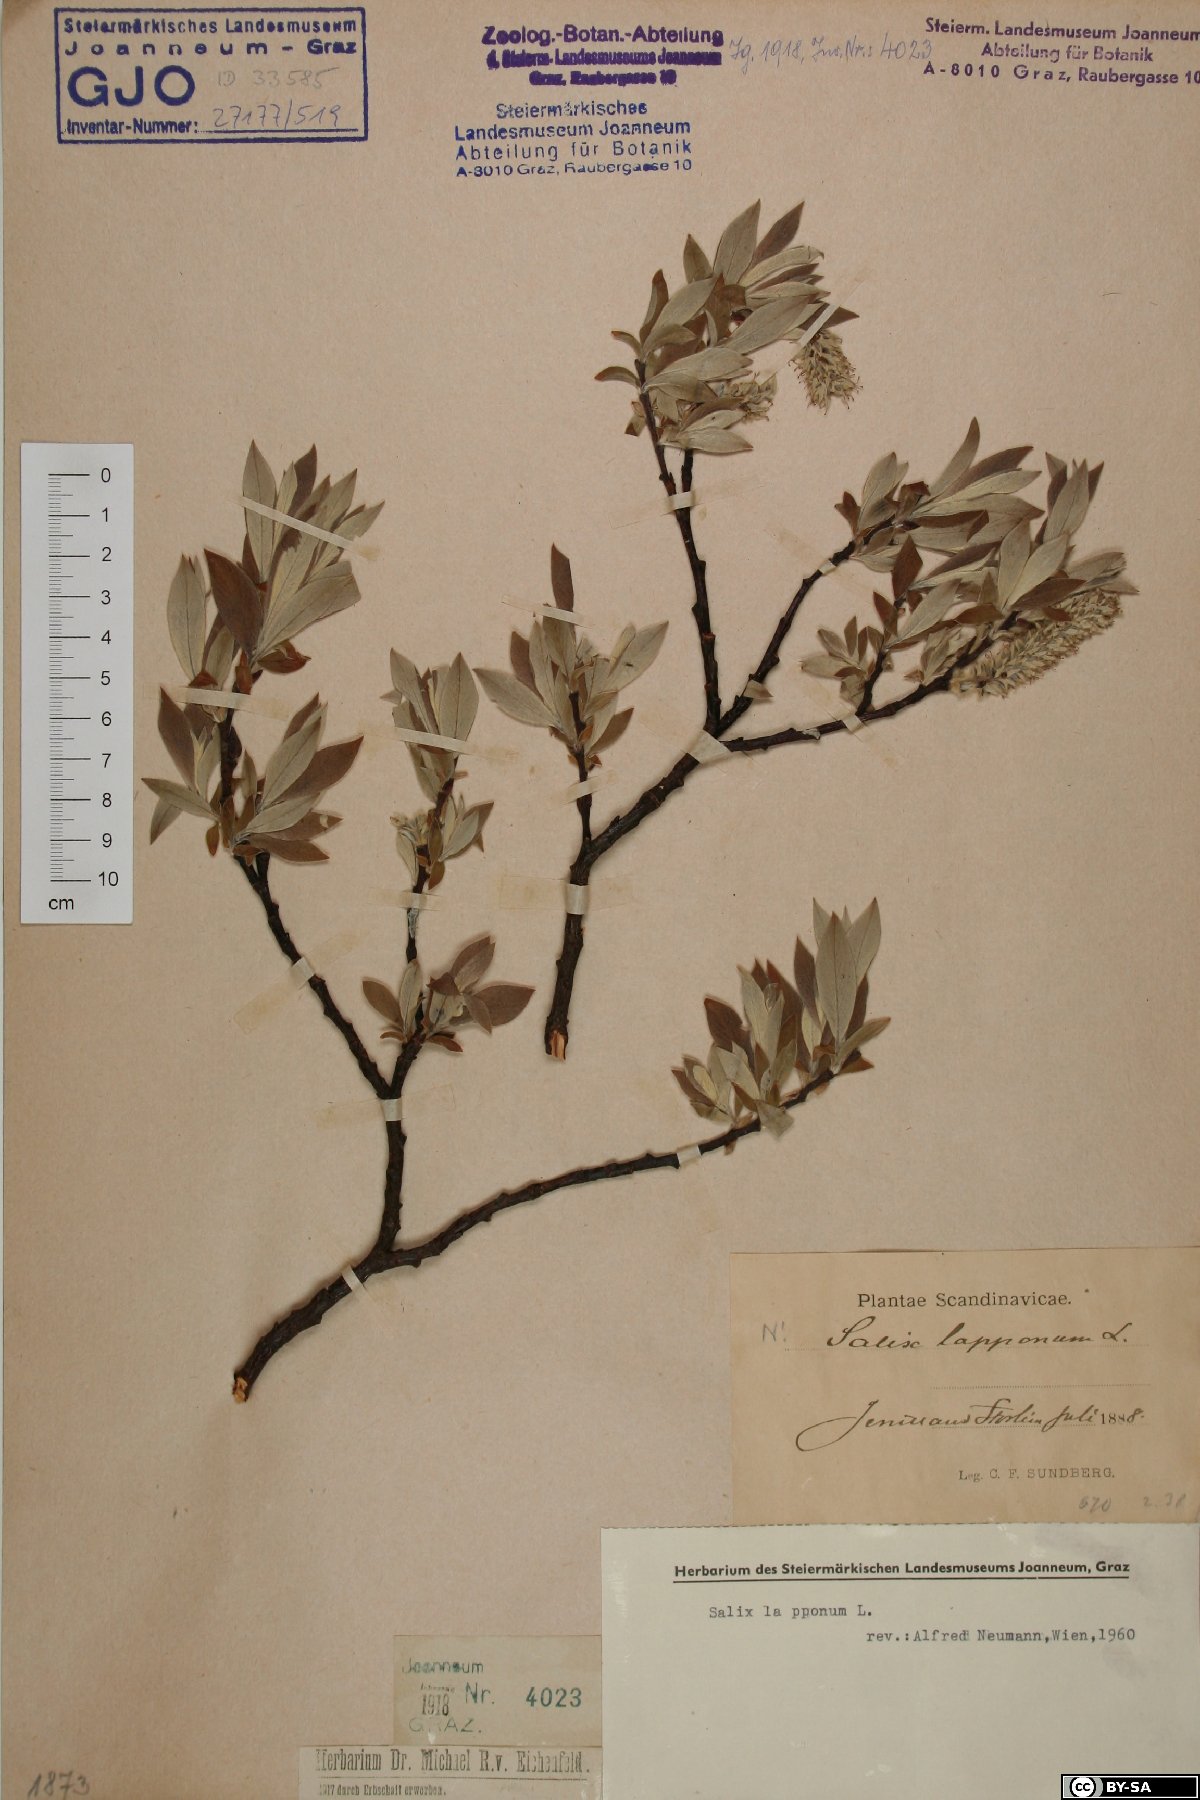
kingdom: Plantae
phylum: Tracheophyta
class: Magnoliopsida
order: Malpighiales
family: Salicaceae
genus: Salix
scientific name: Salix lapponum
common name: Downy willow
